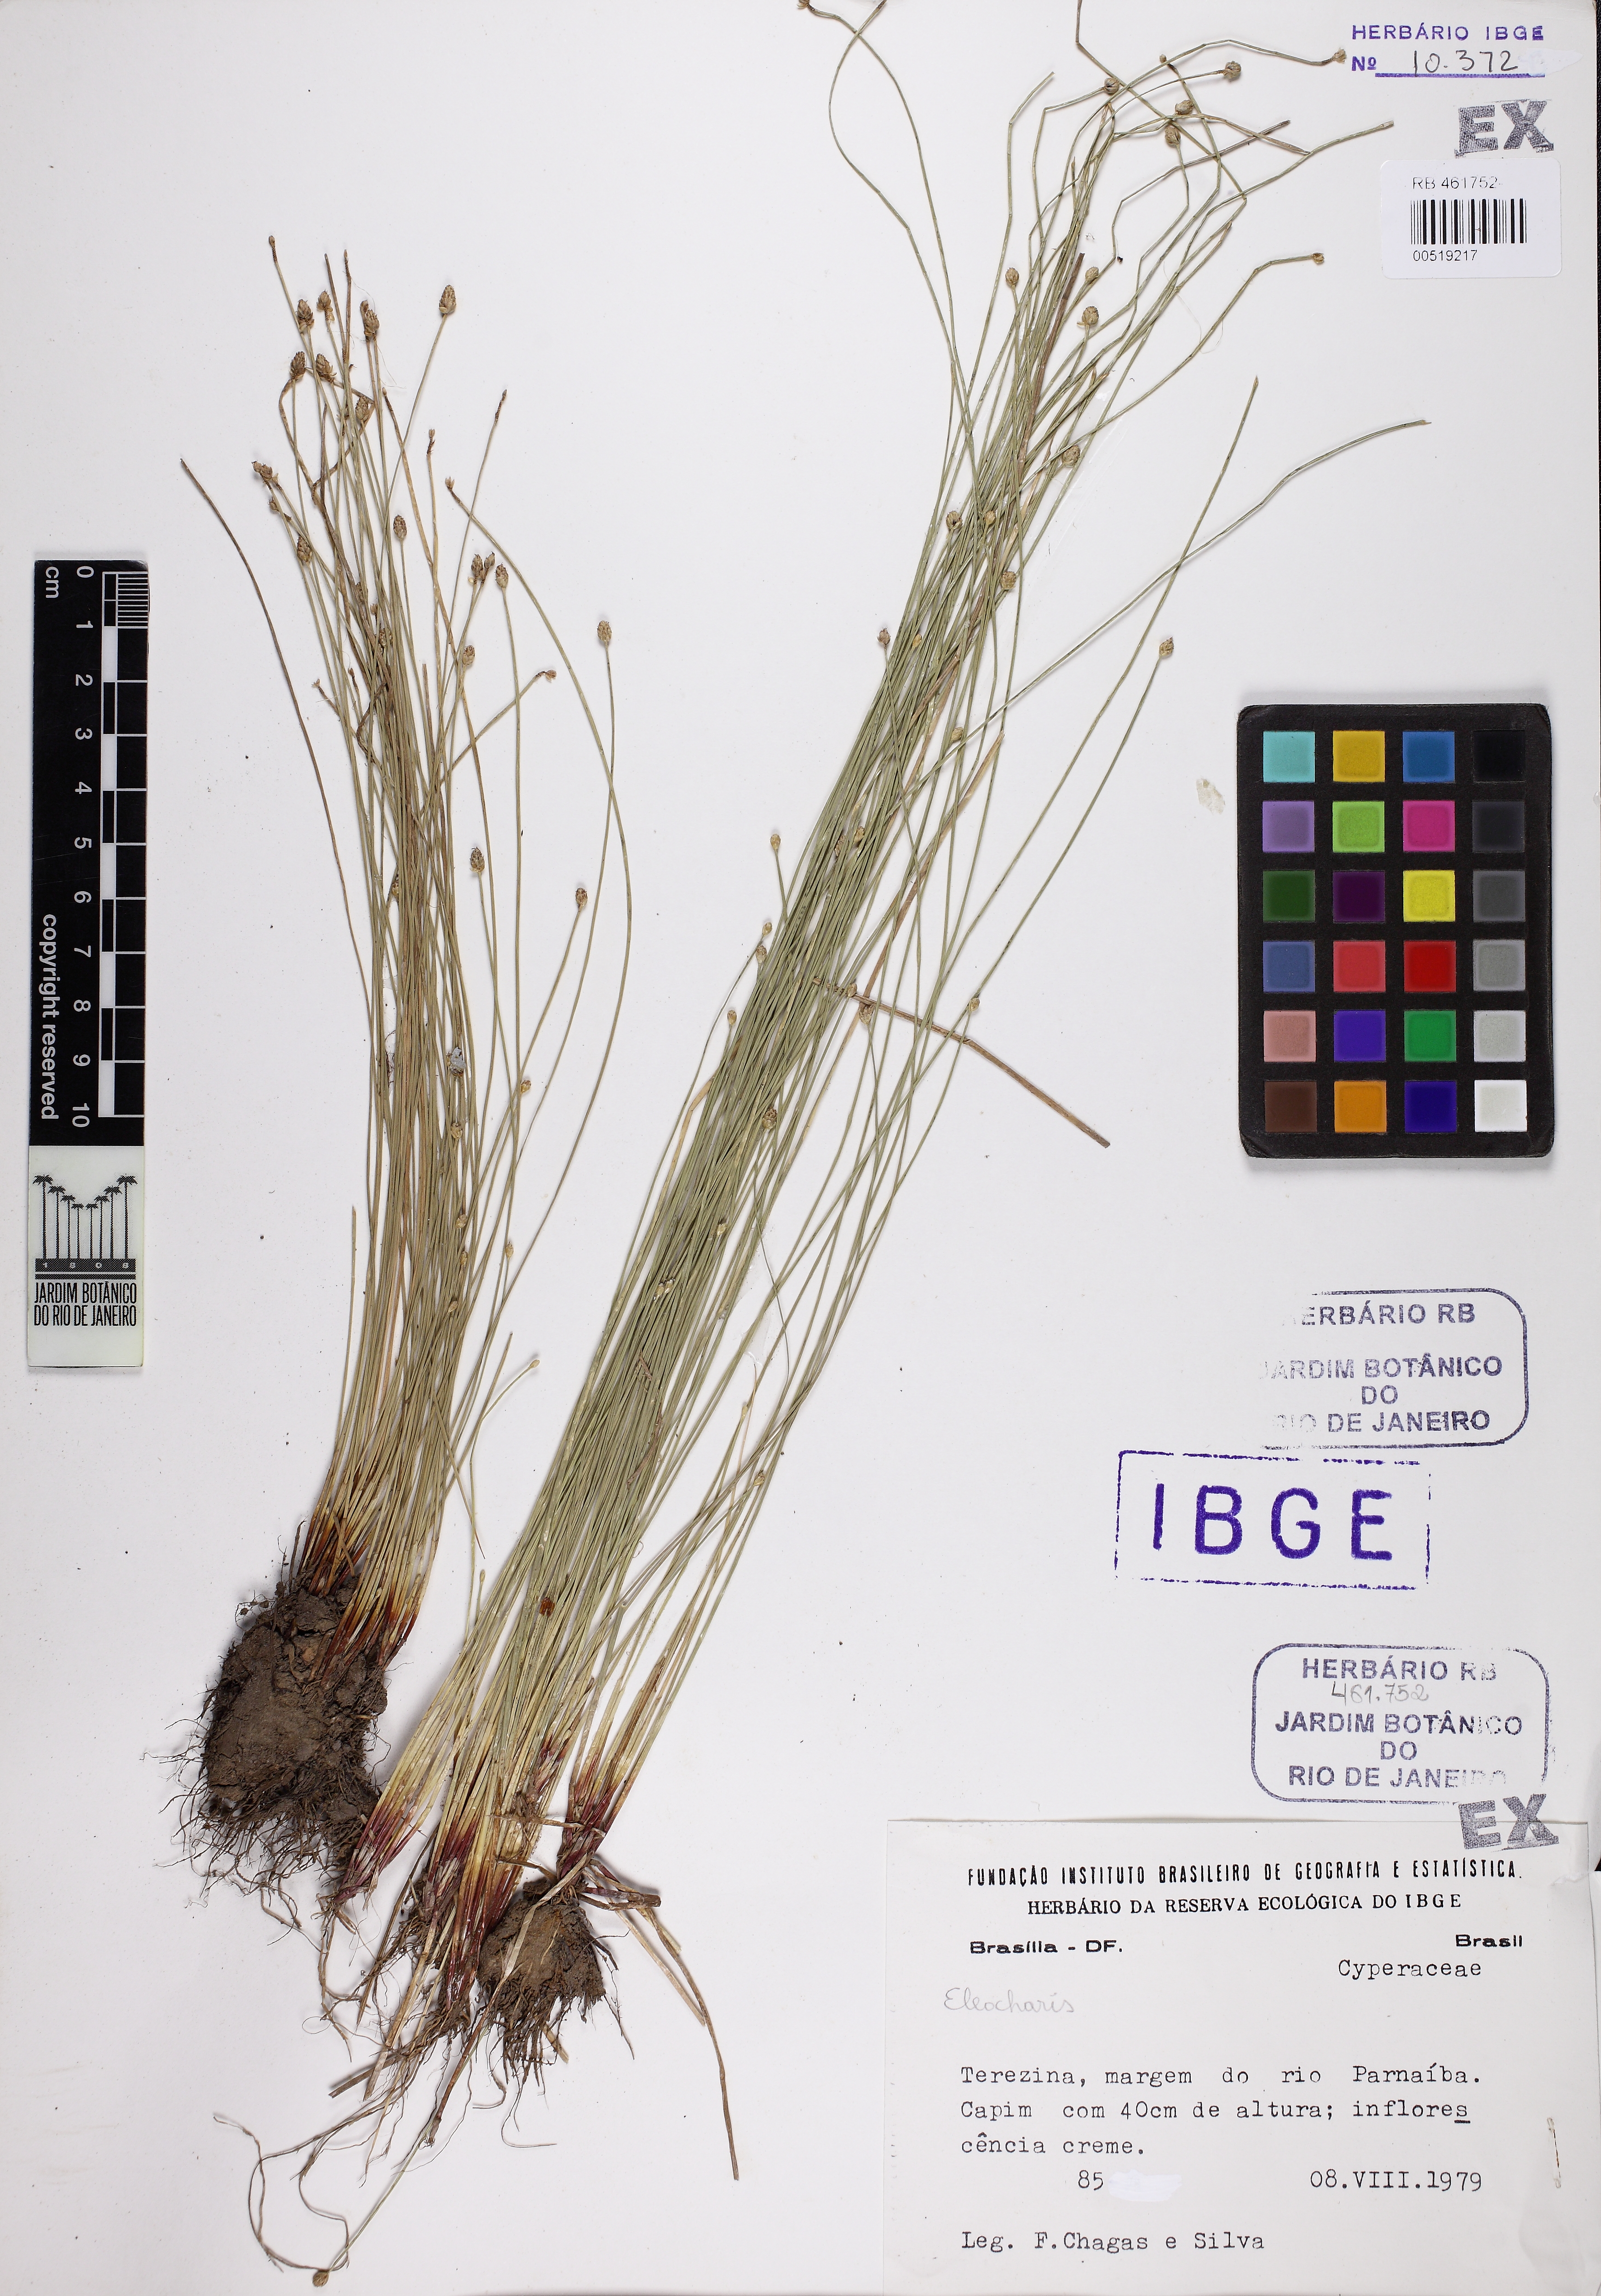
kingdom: Plantae
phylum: Tracheophyta
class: Liliopsida
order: Poales
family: Cyperaceae
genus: Eleocharis
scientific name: Eleocharis geniculata
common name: Canada spikesedge
